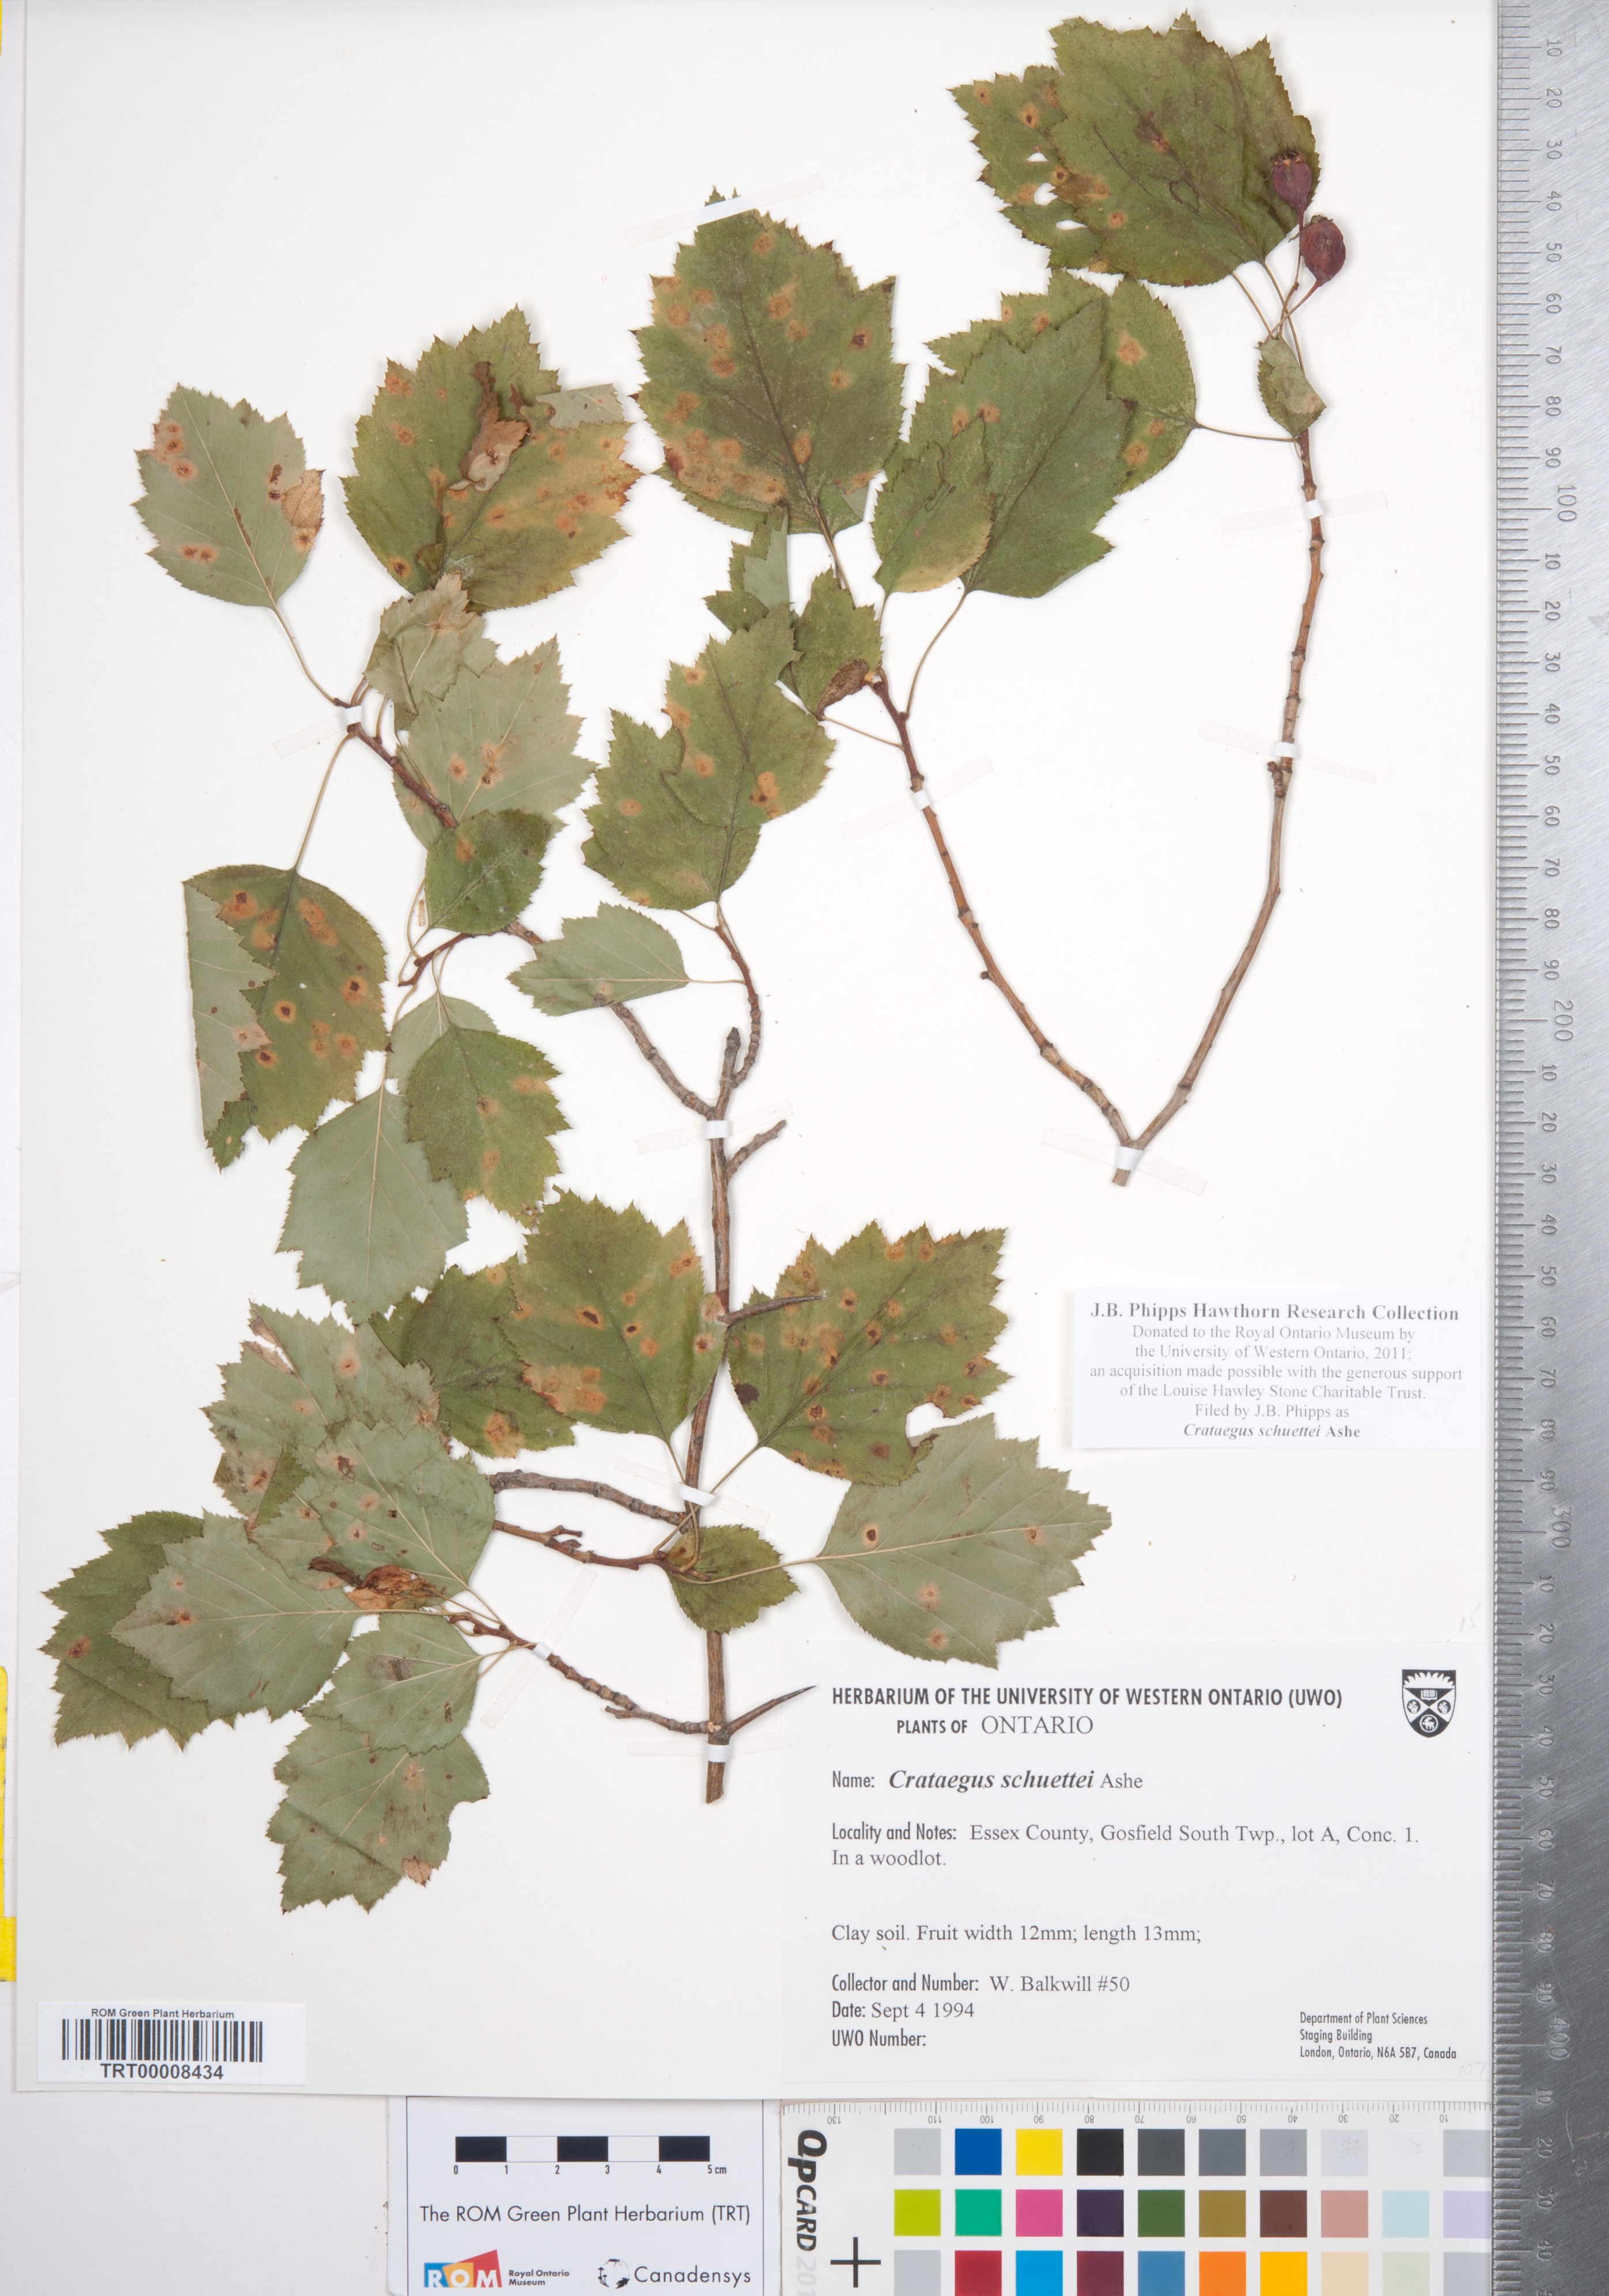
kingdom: Plantae
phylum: Tracheophyta
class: Magnoliopsida
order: Rosales
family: Rosaceae
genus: Crataegus
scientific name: Crataegus schuettei
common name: Schuette's hawthorn
